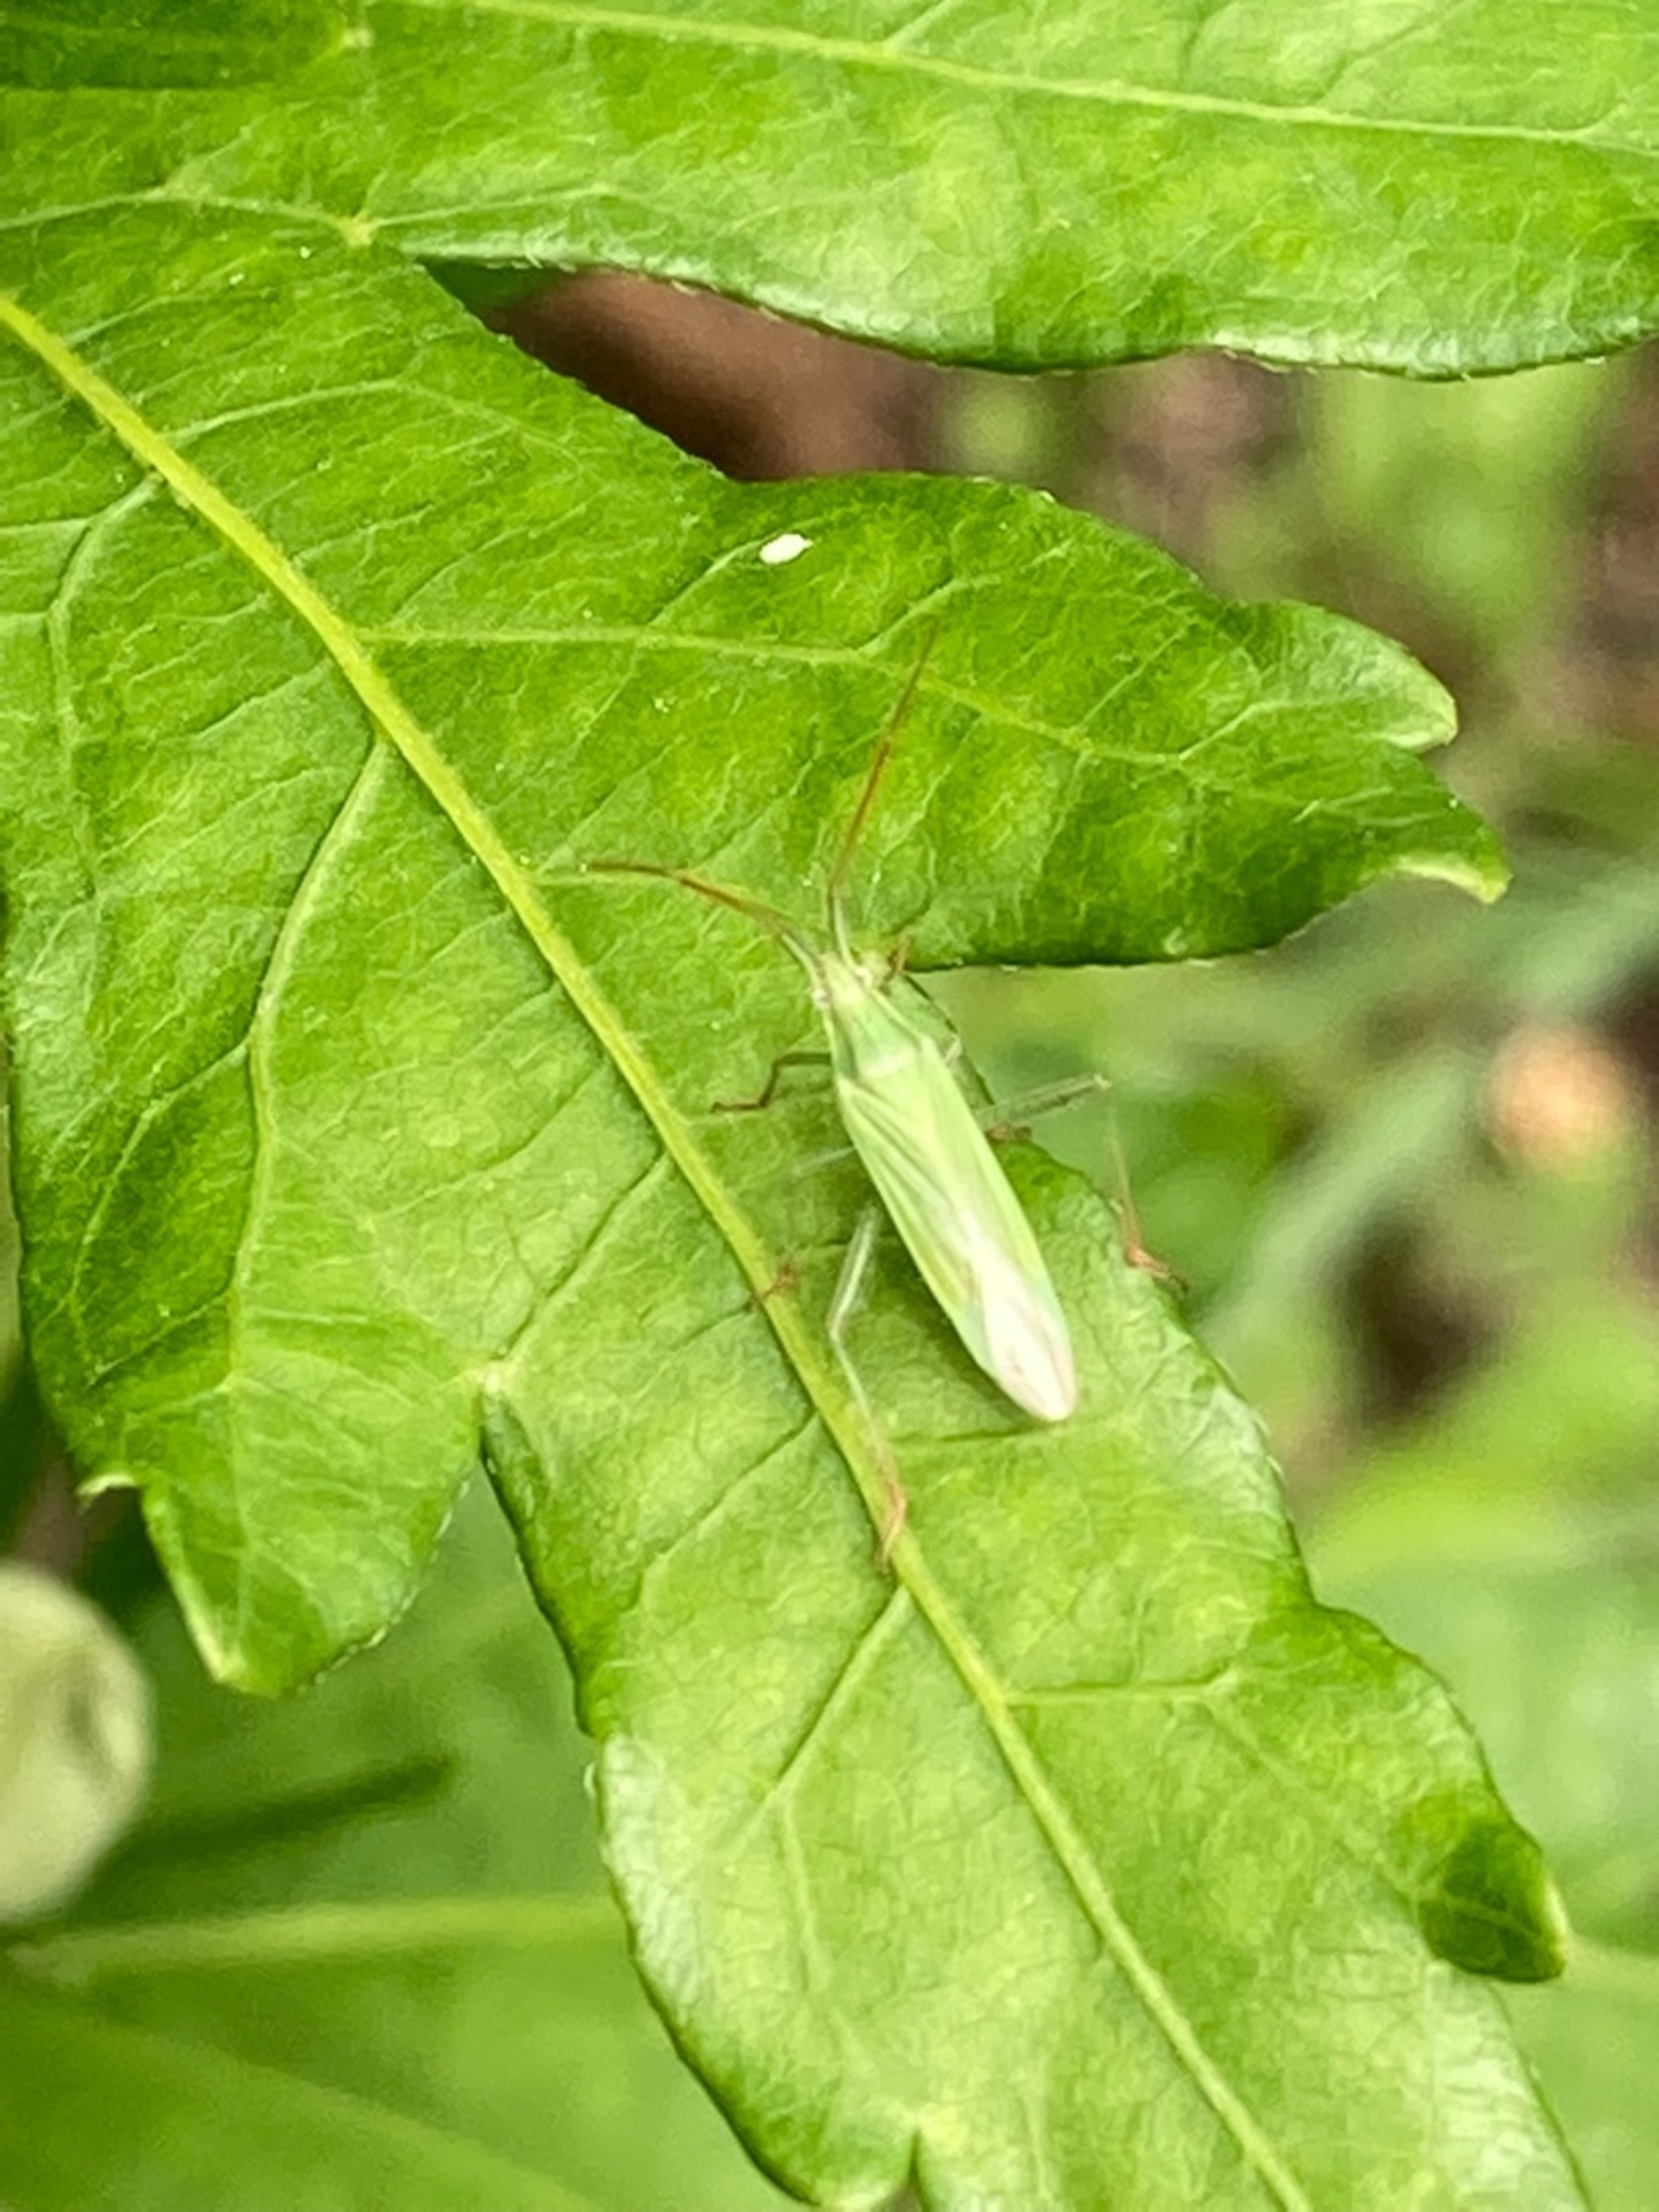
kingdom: Animalia
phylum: Arthropoda
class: Insecta
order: Hemiptera
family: Miridae
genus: Stenodema
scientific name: Stenodema calcarata
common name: Tornet græstæge
